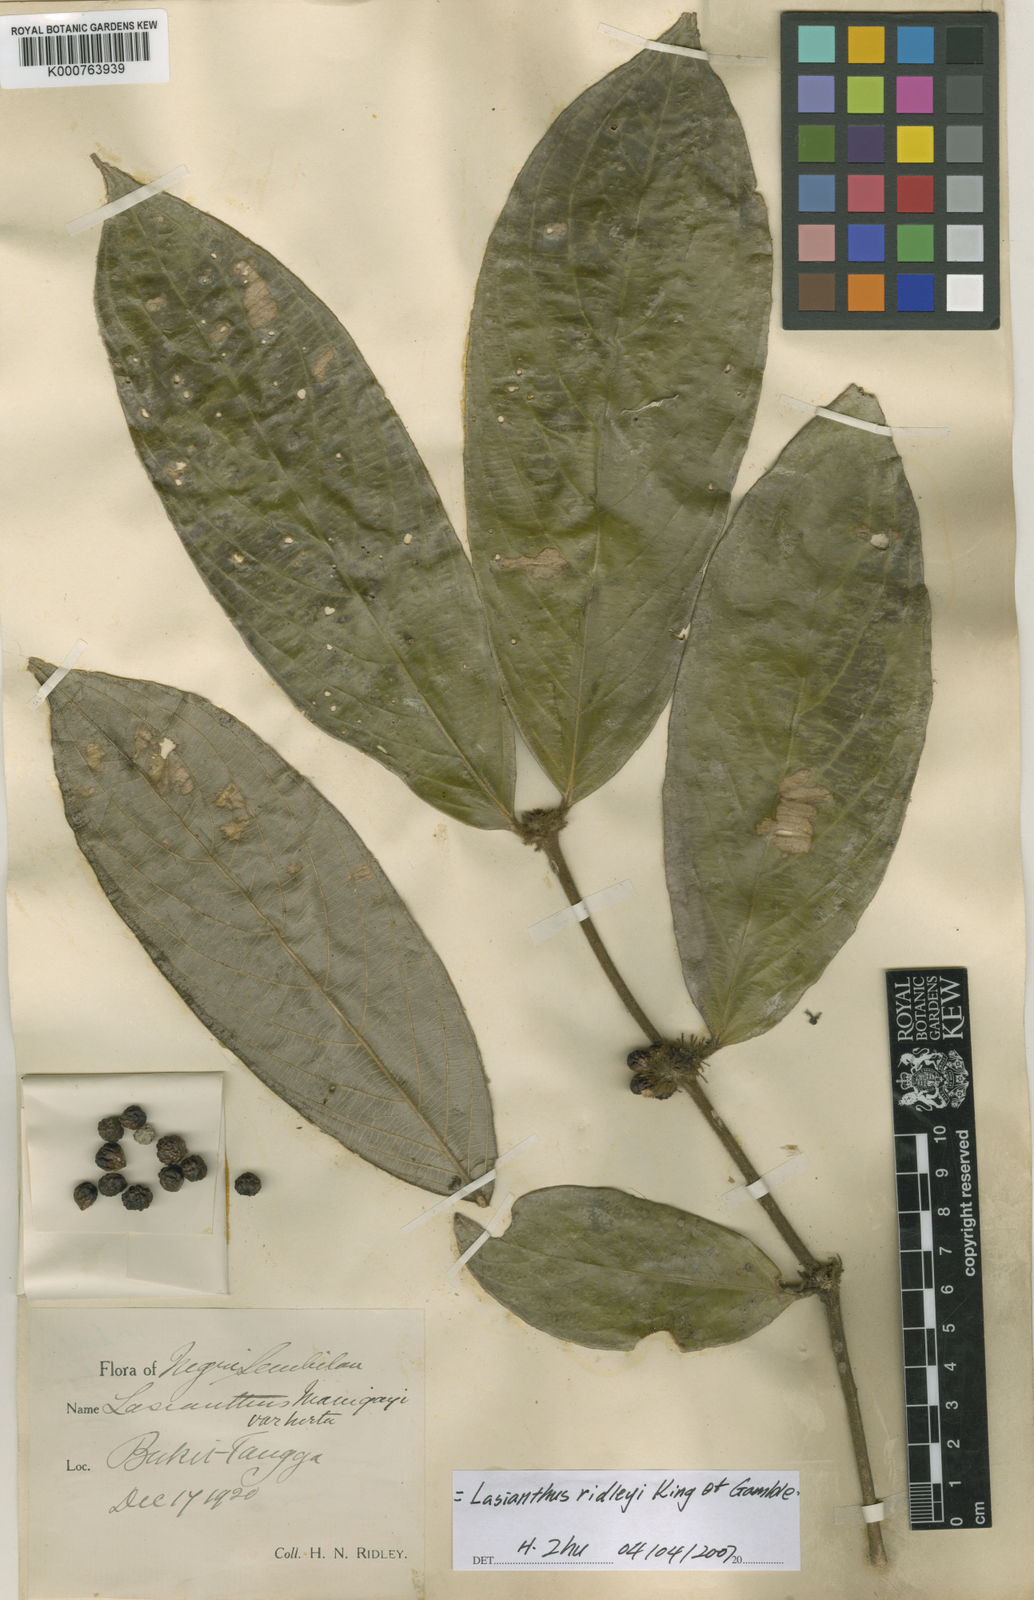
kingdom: Plantae
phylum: Tracheophyta
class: Magnoliopsida
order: Gentianales
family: Rubiaceae
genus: Lasianthus
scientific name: Lasianthus ridleyi
